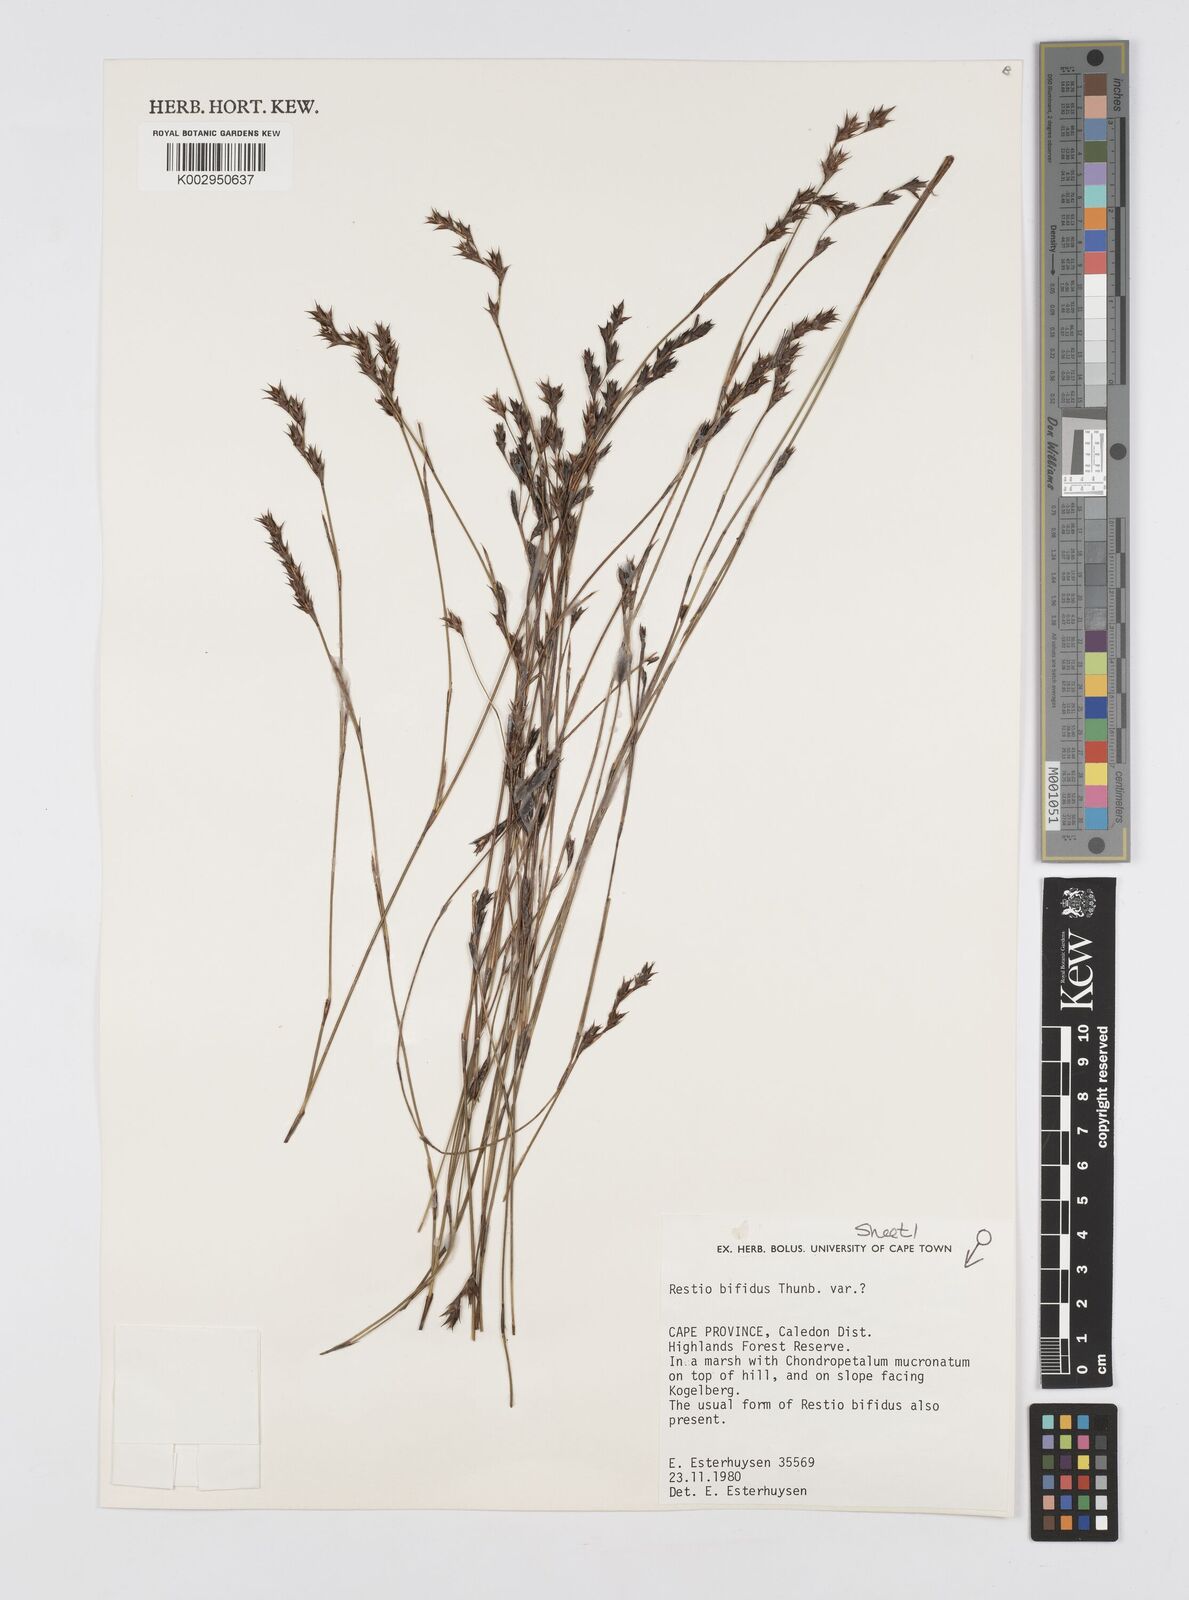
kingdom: Plantae
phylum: Tracheophyta
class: Liliopsida
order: Poales
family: Restionaceae
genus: Restio
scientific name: Restio bifidus
